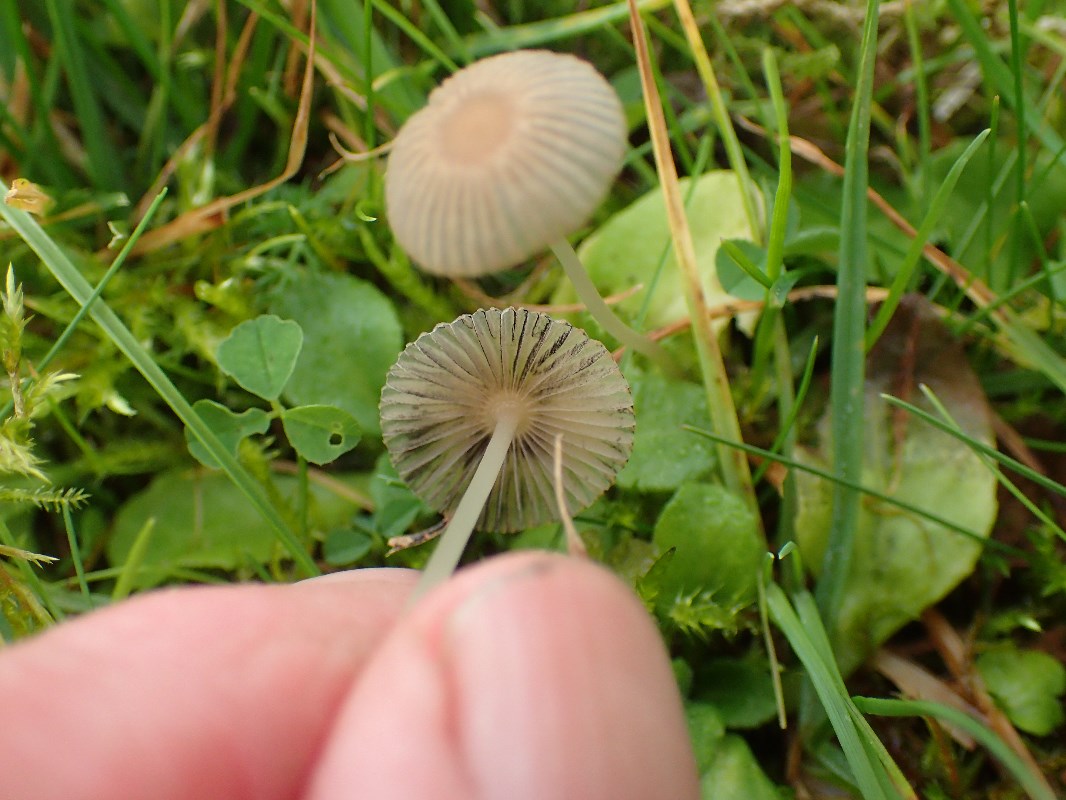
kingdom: Fungi
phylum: Basidiomycota
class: Agaricomycetes
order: Agaricales
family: Psathyrellaceae
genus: Parasola
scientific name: Parasola plicatilis
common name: plæne-hjulhat
